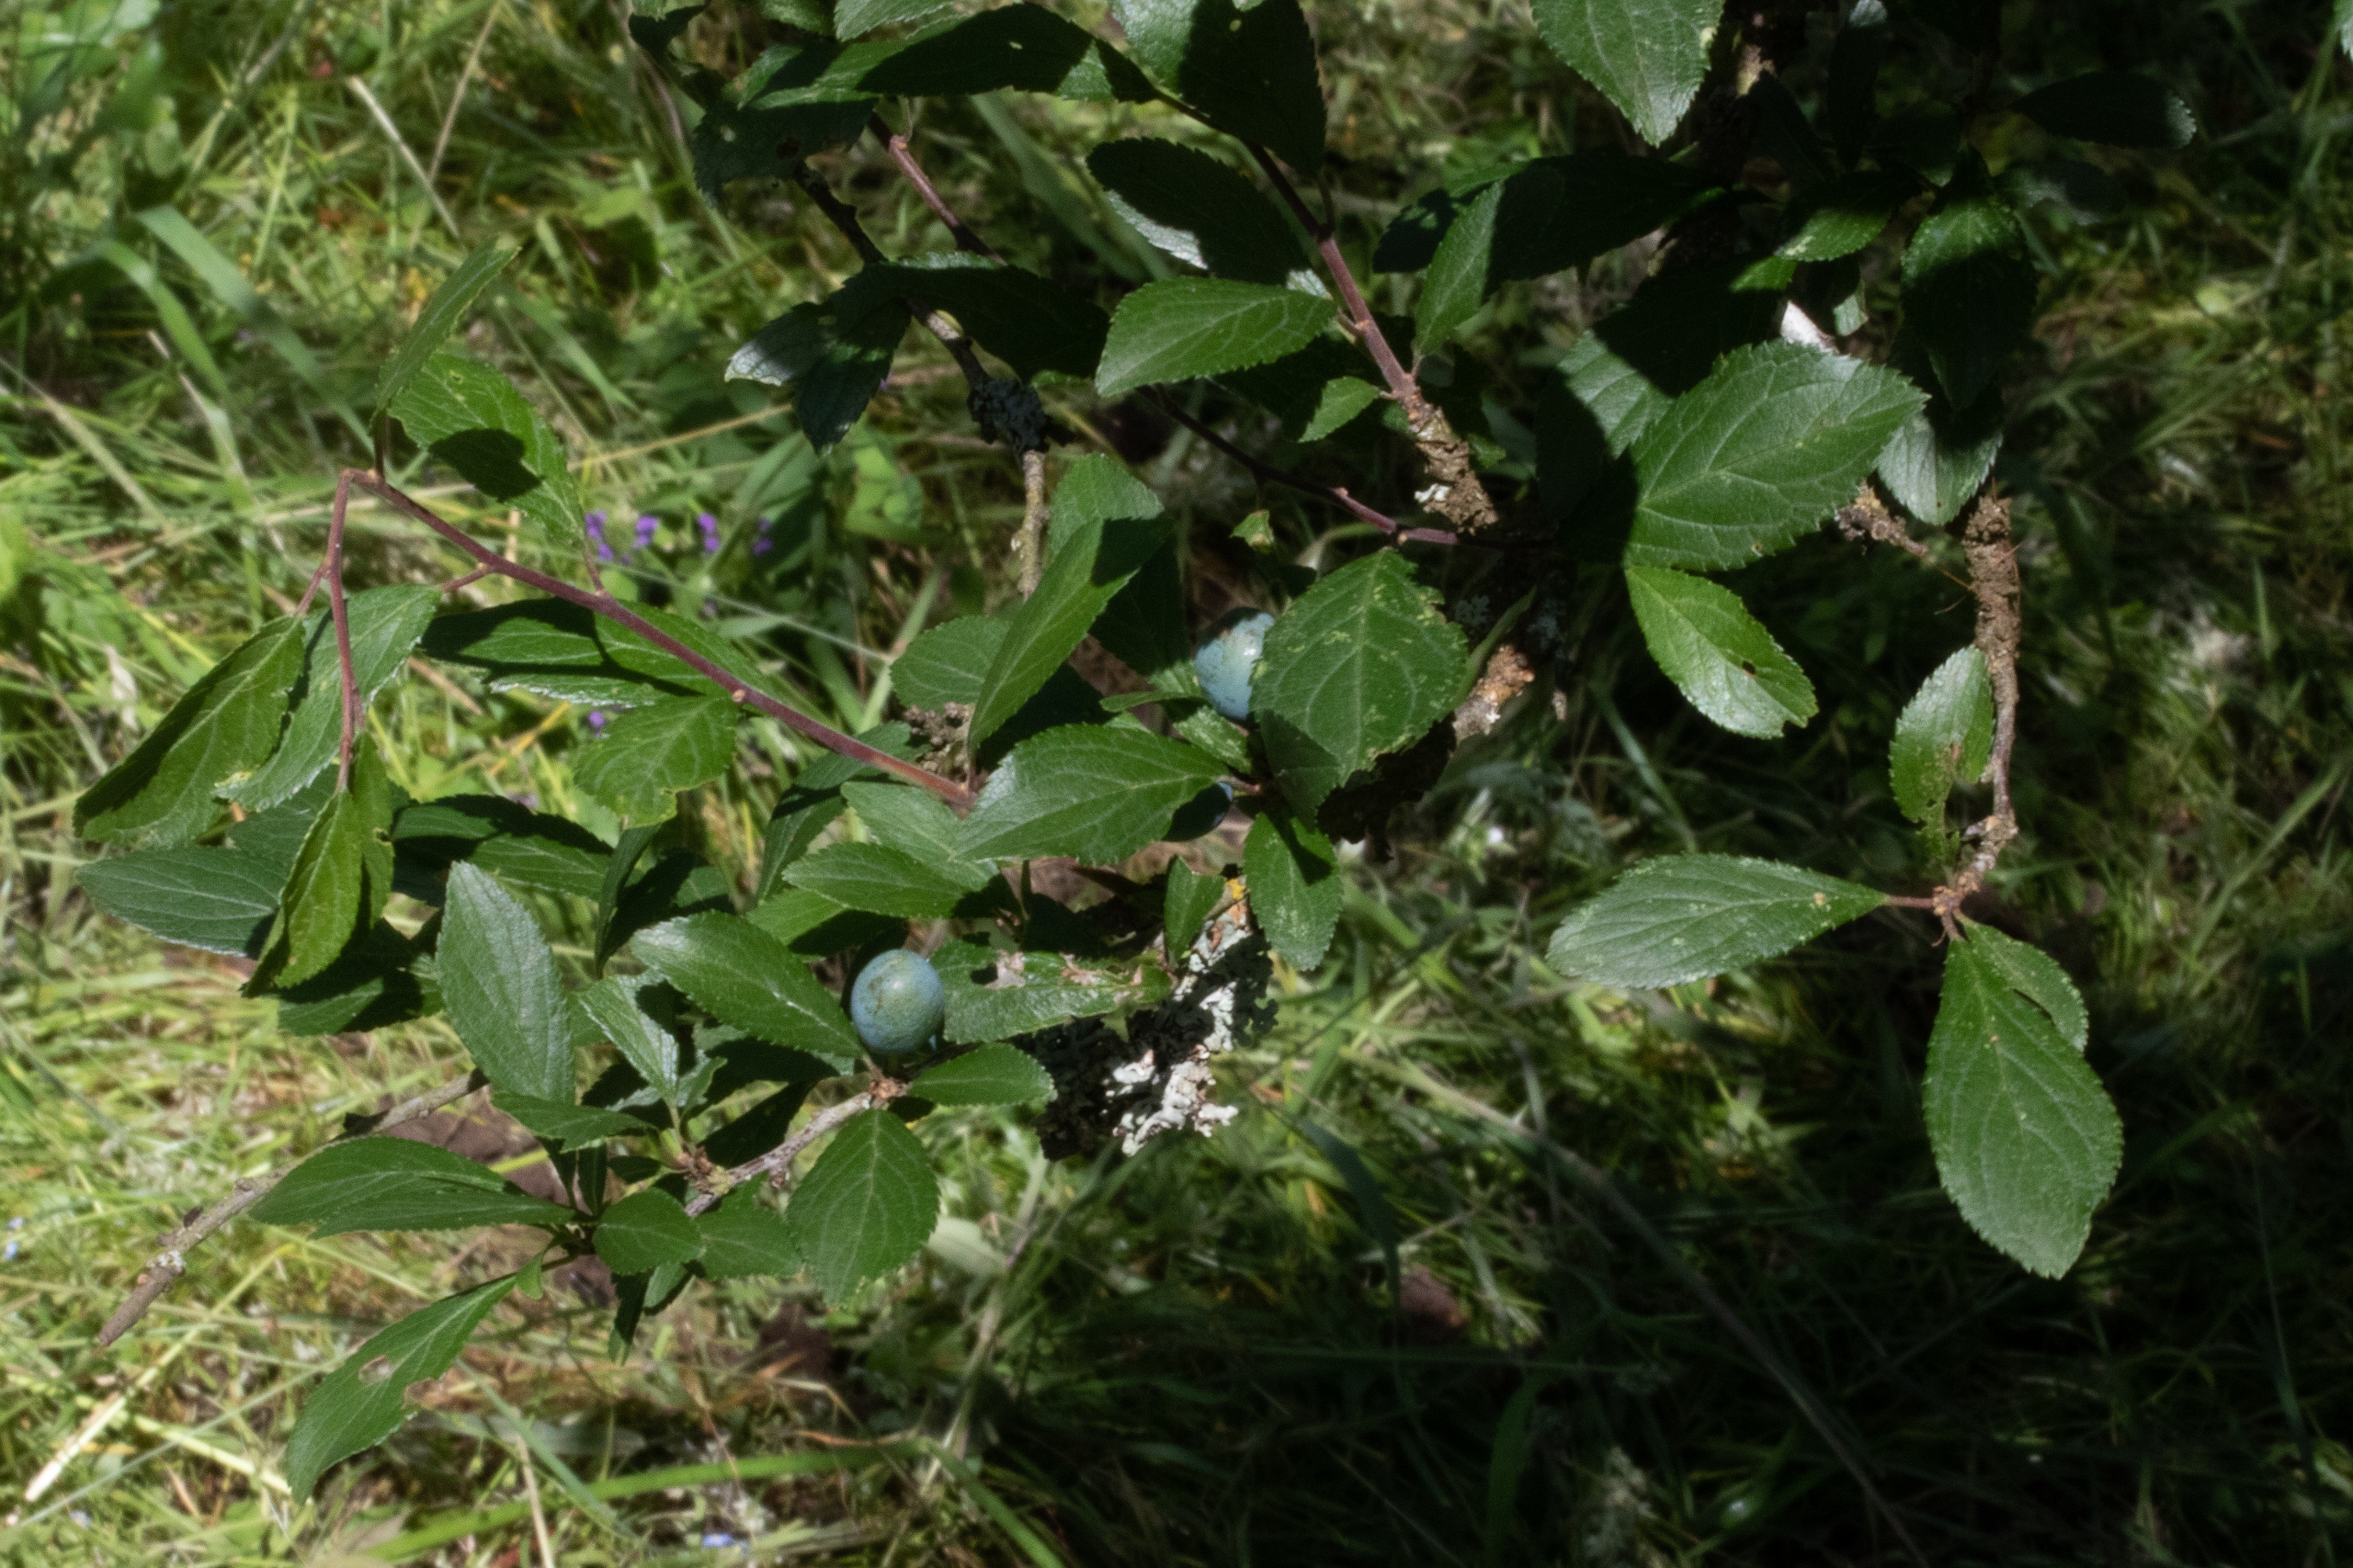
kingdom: Plantae
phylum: Tracheophyta
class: Magnoliopsida
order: Rosales
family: Rosaceae
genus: Prunus
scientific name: Prunus spinosa
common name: Slåen
